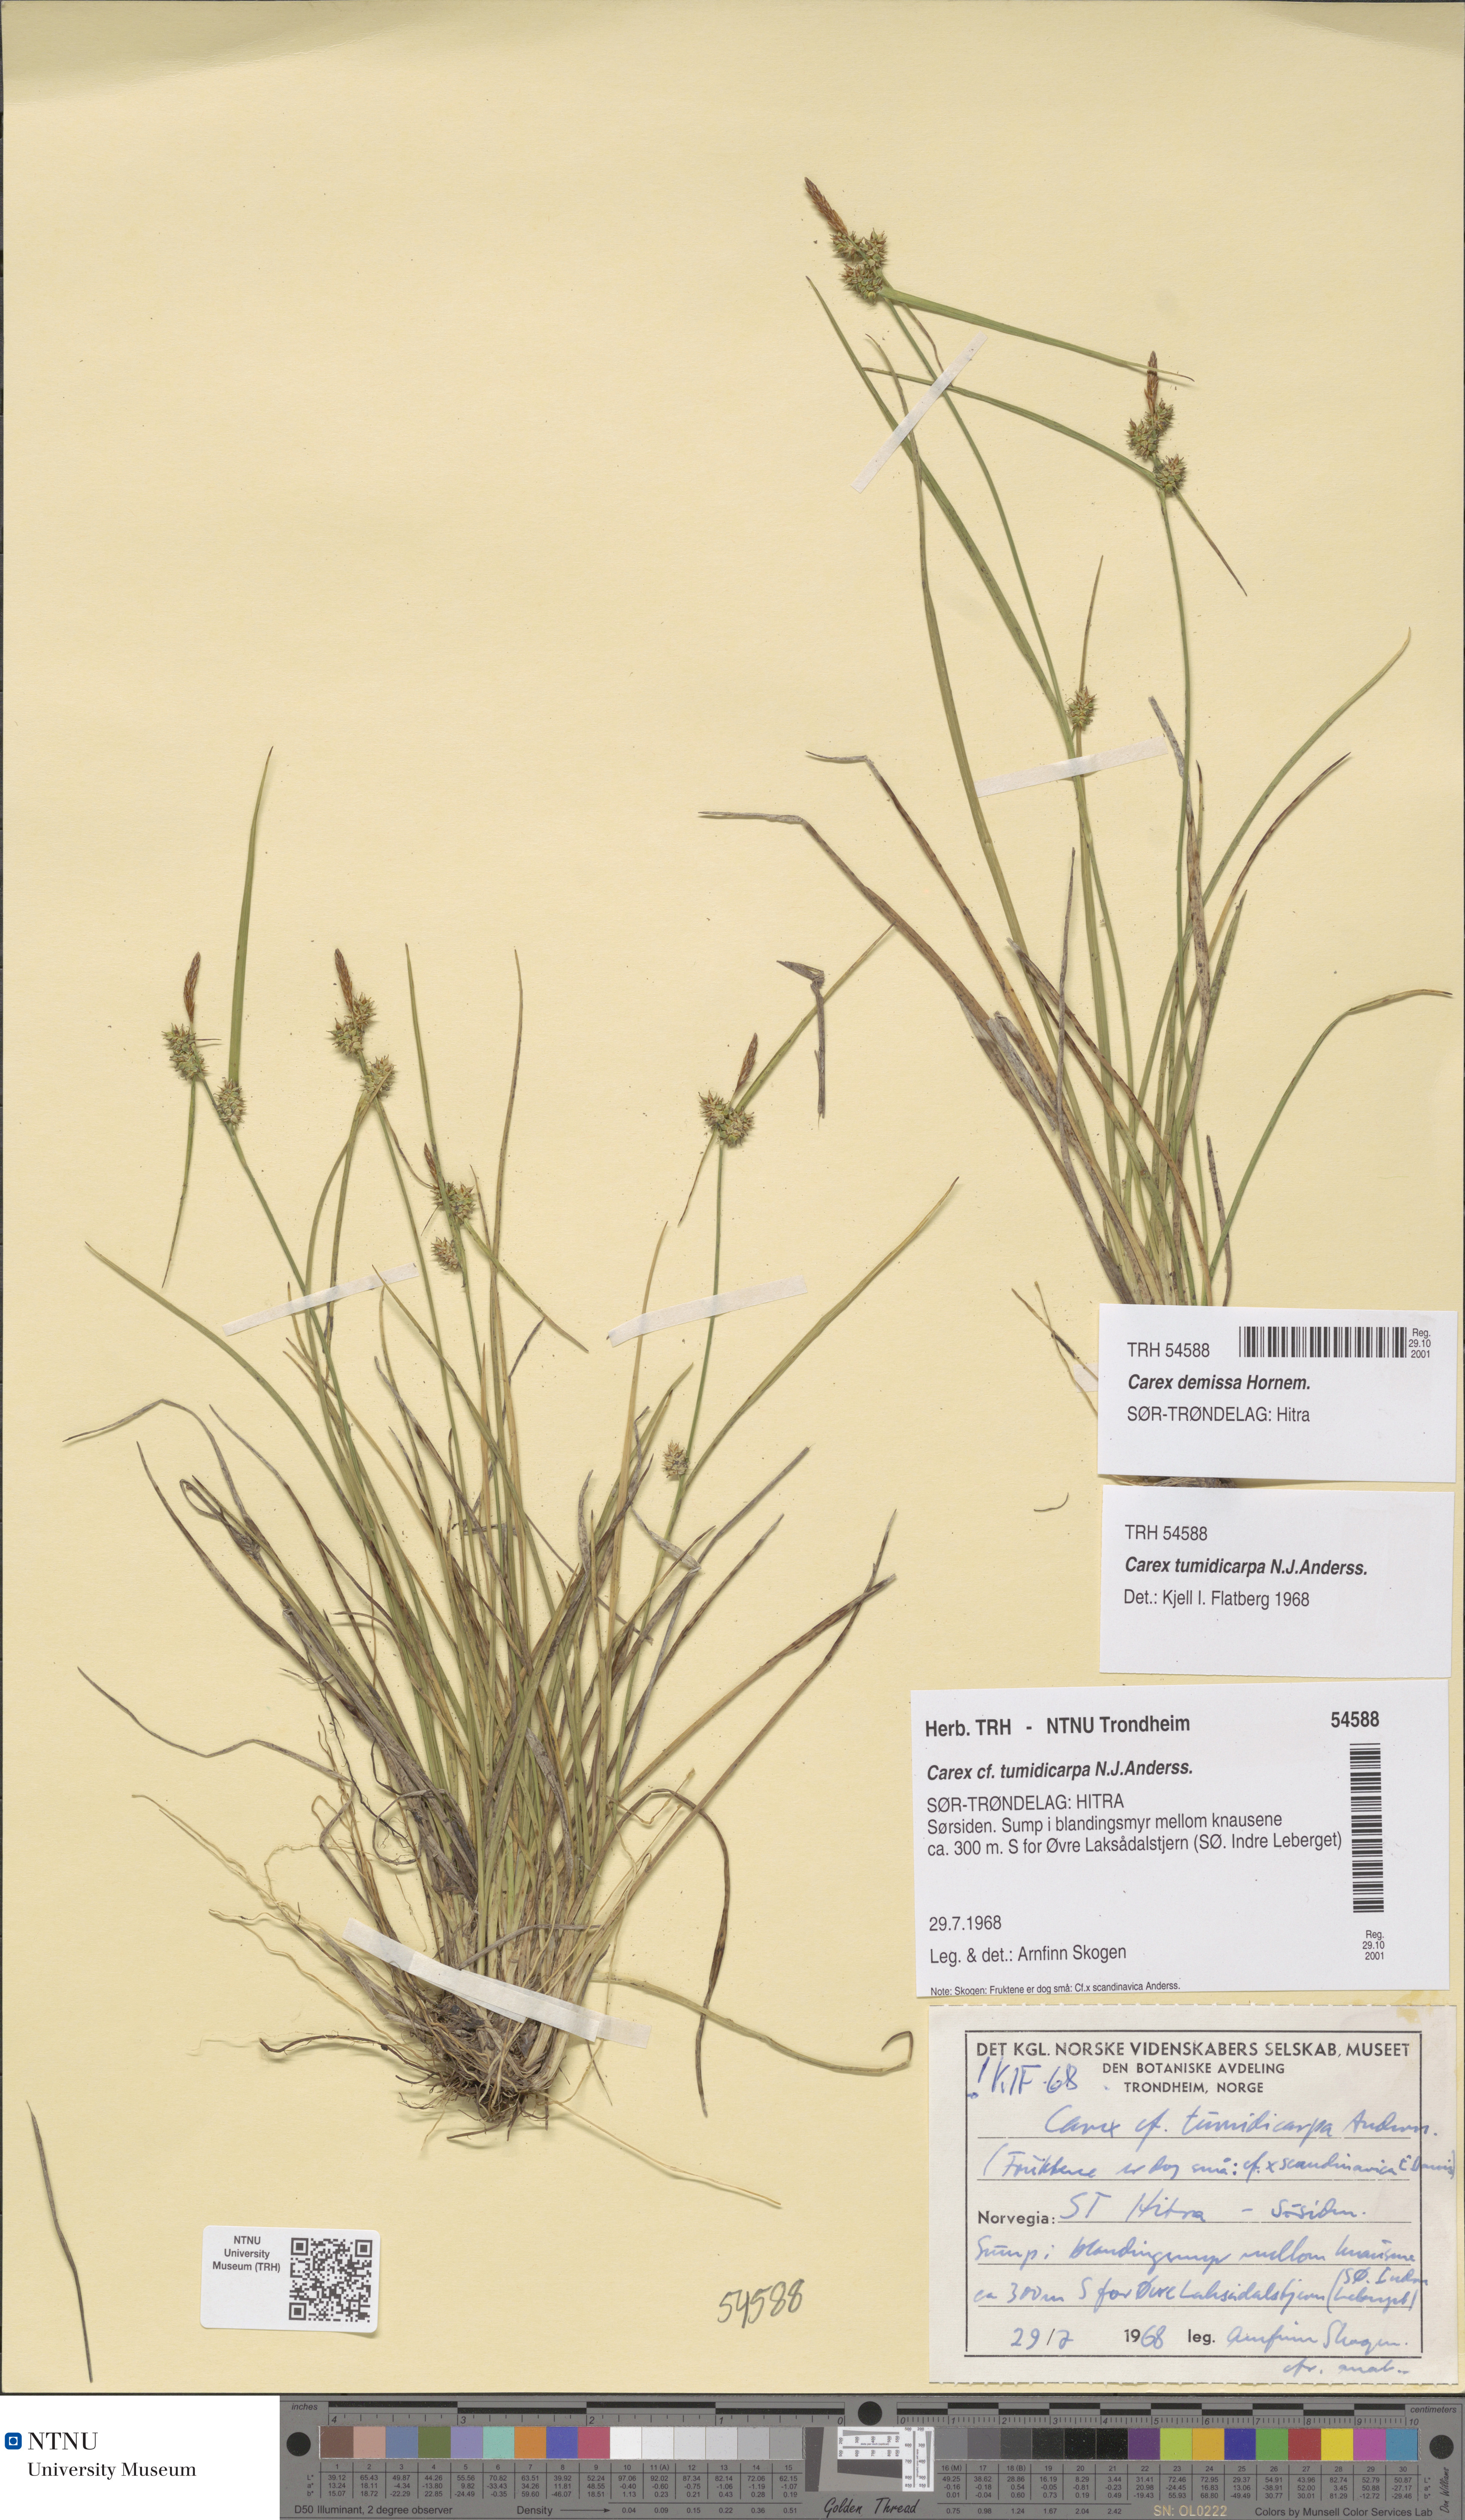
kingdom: Plantae
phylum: Tracheophyta
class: Liliopsida
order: Poales
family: Cyperaceae
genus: Carex
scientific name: Carex demissa
